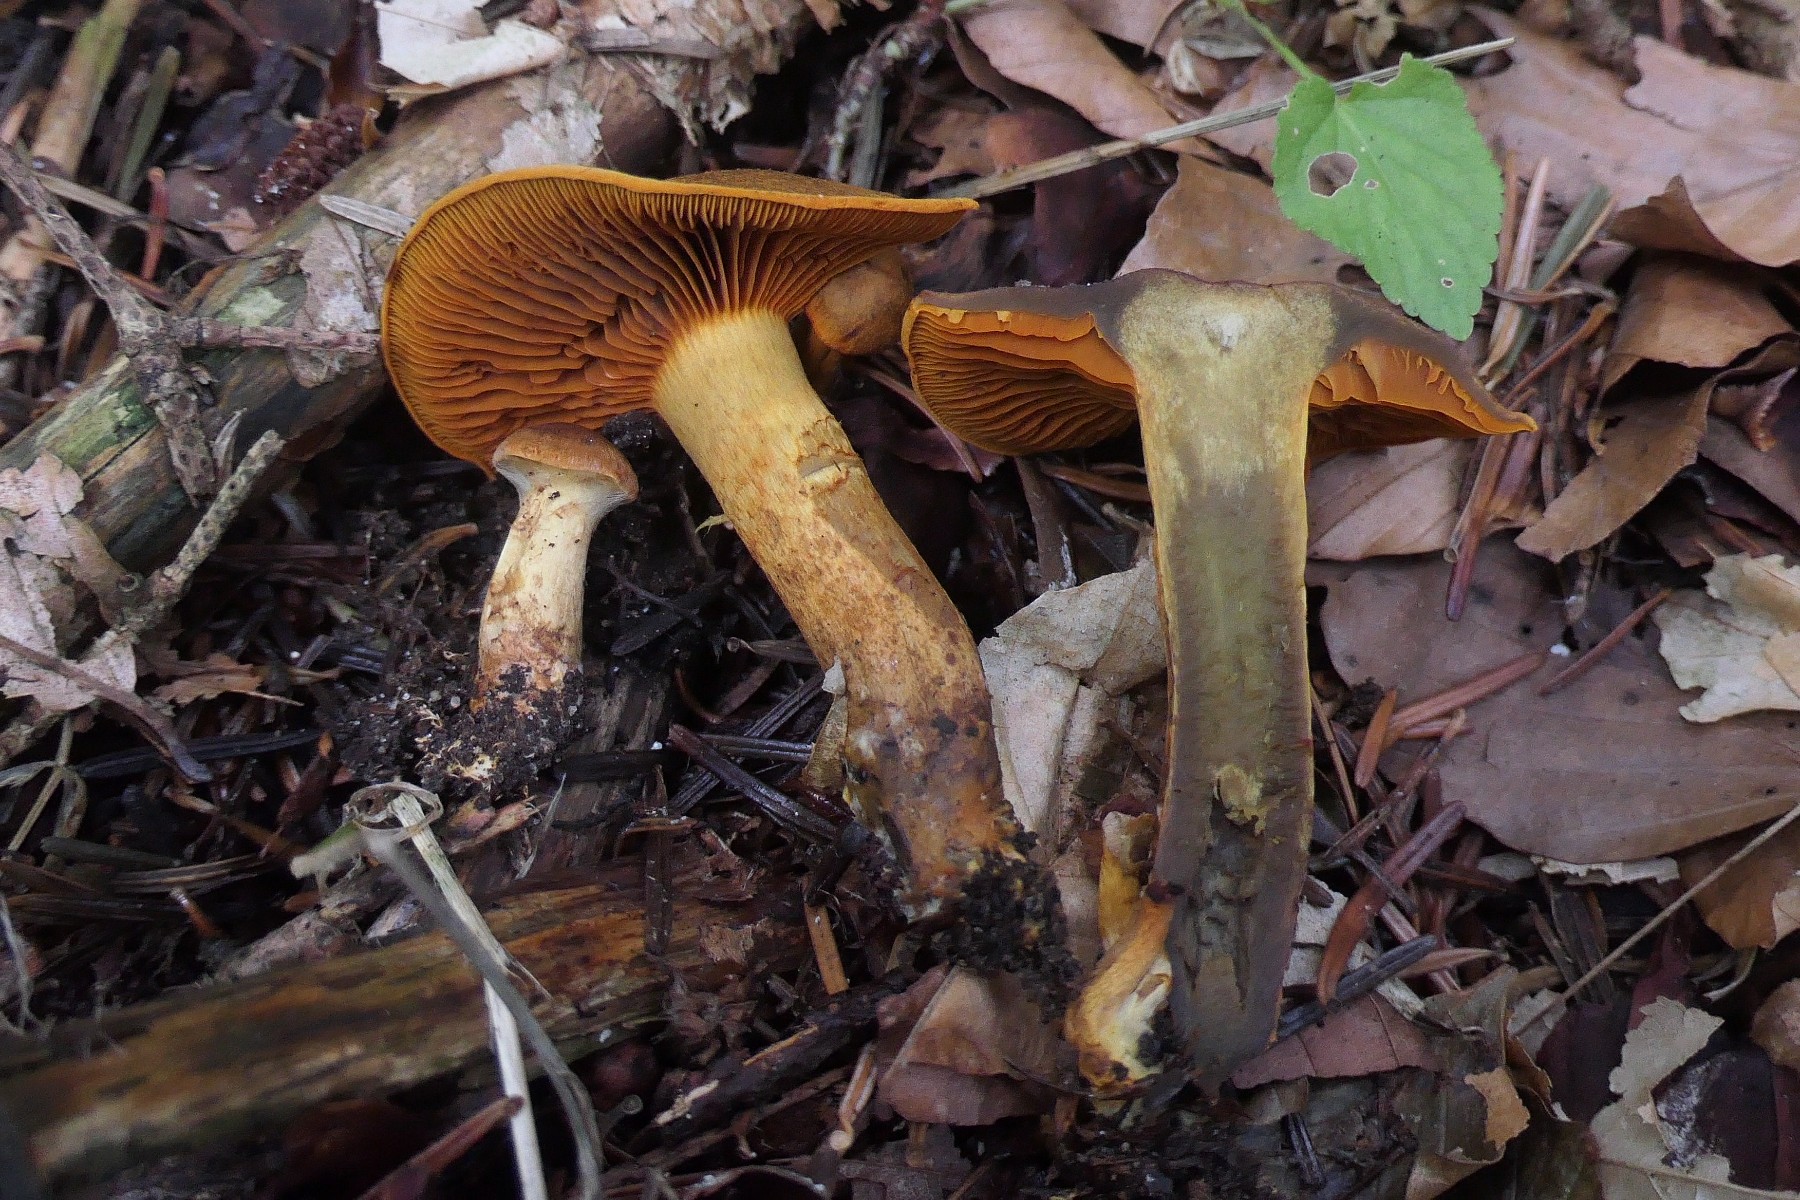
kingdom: Fungi
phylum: Basidiomycota
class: Agaricomycetes
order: Agaricales
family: Cortinariaceae
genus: Cortinarius
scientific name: Cortinarius malicorius
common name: grønkødet slørhat
